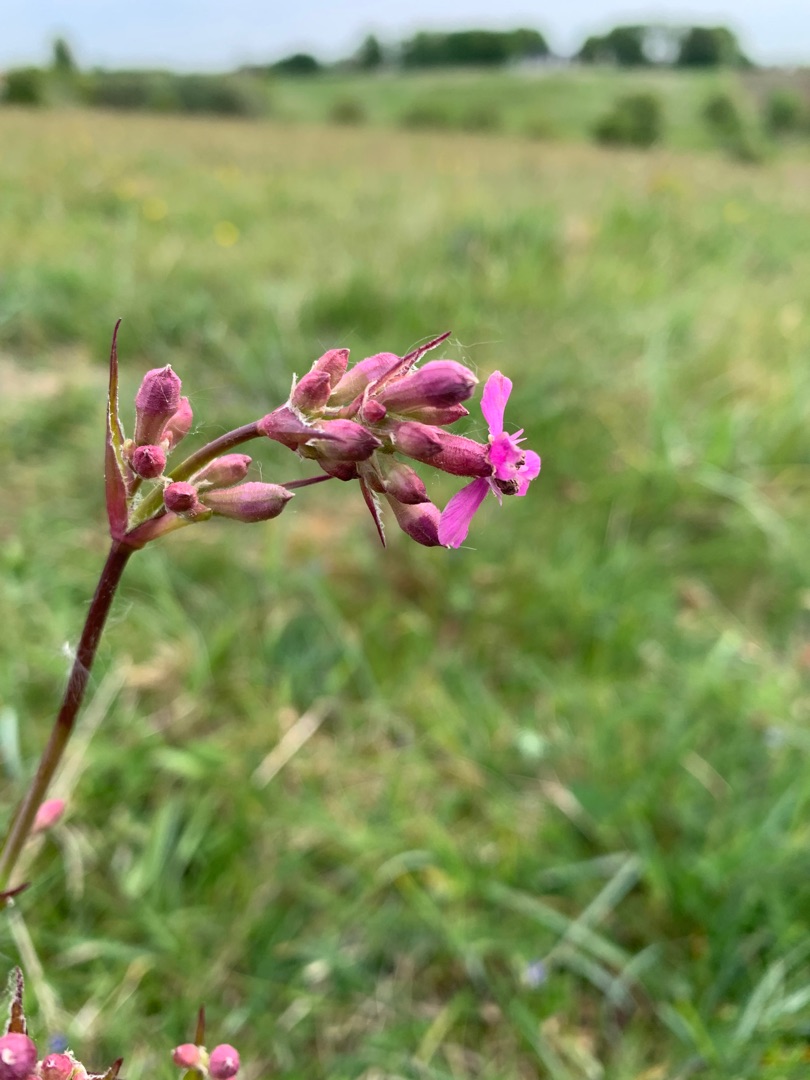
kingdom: Plantae
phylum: Tracheophyta
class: Magnoliopsida
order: Caryophyllales
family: Caryophyllaceae
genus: Viscaria
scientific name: Viscaria vulgaris
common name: Tjærenellike
